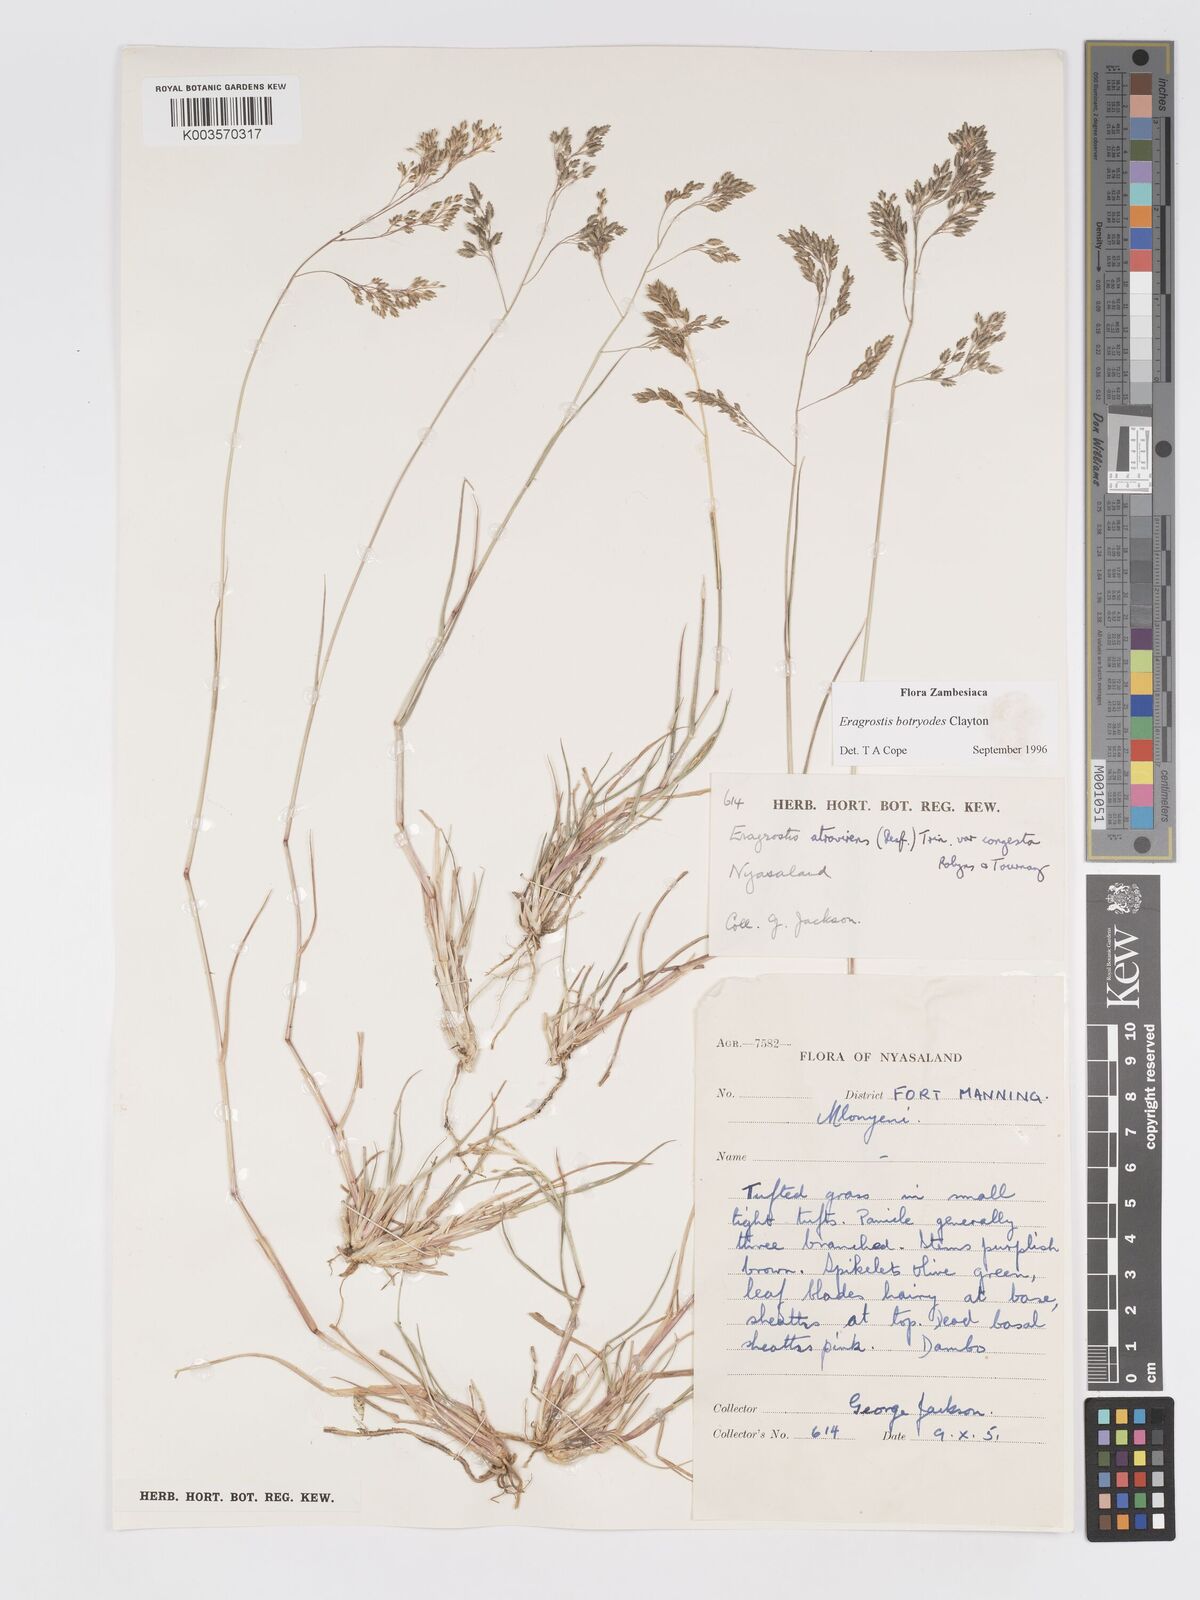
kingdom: Plantae
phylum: Tracheophyta
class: Liliopsida
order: Poales
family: Poaceae
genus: Eragrostis
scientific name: Eragrostis botryodes
